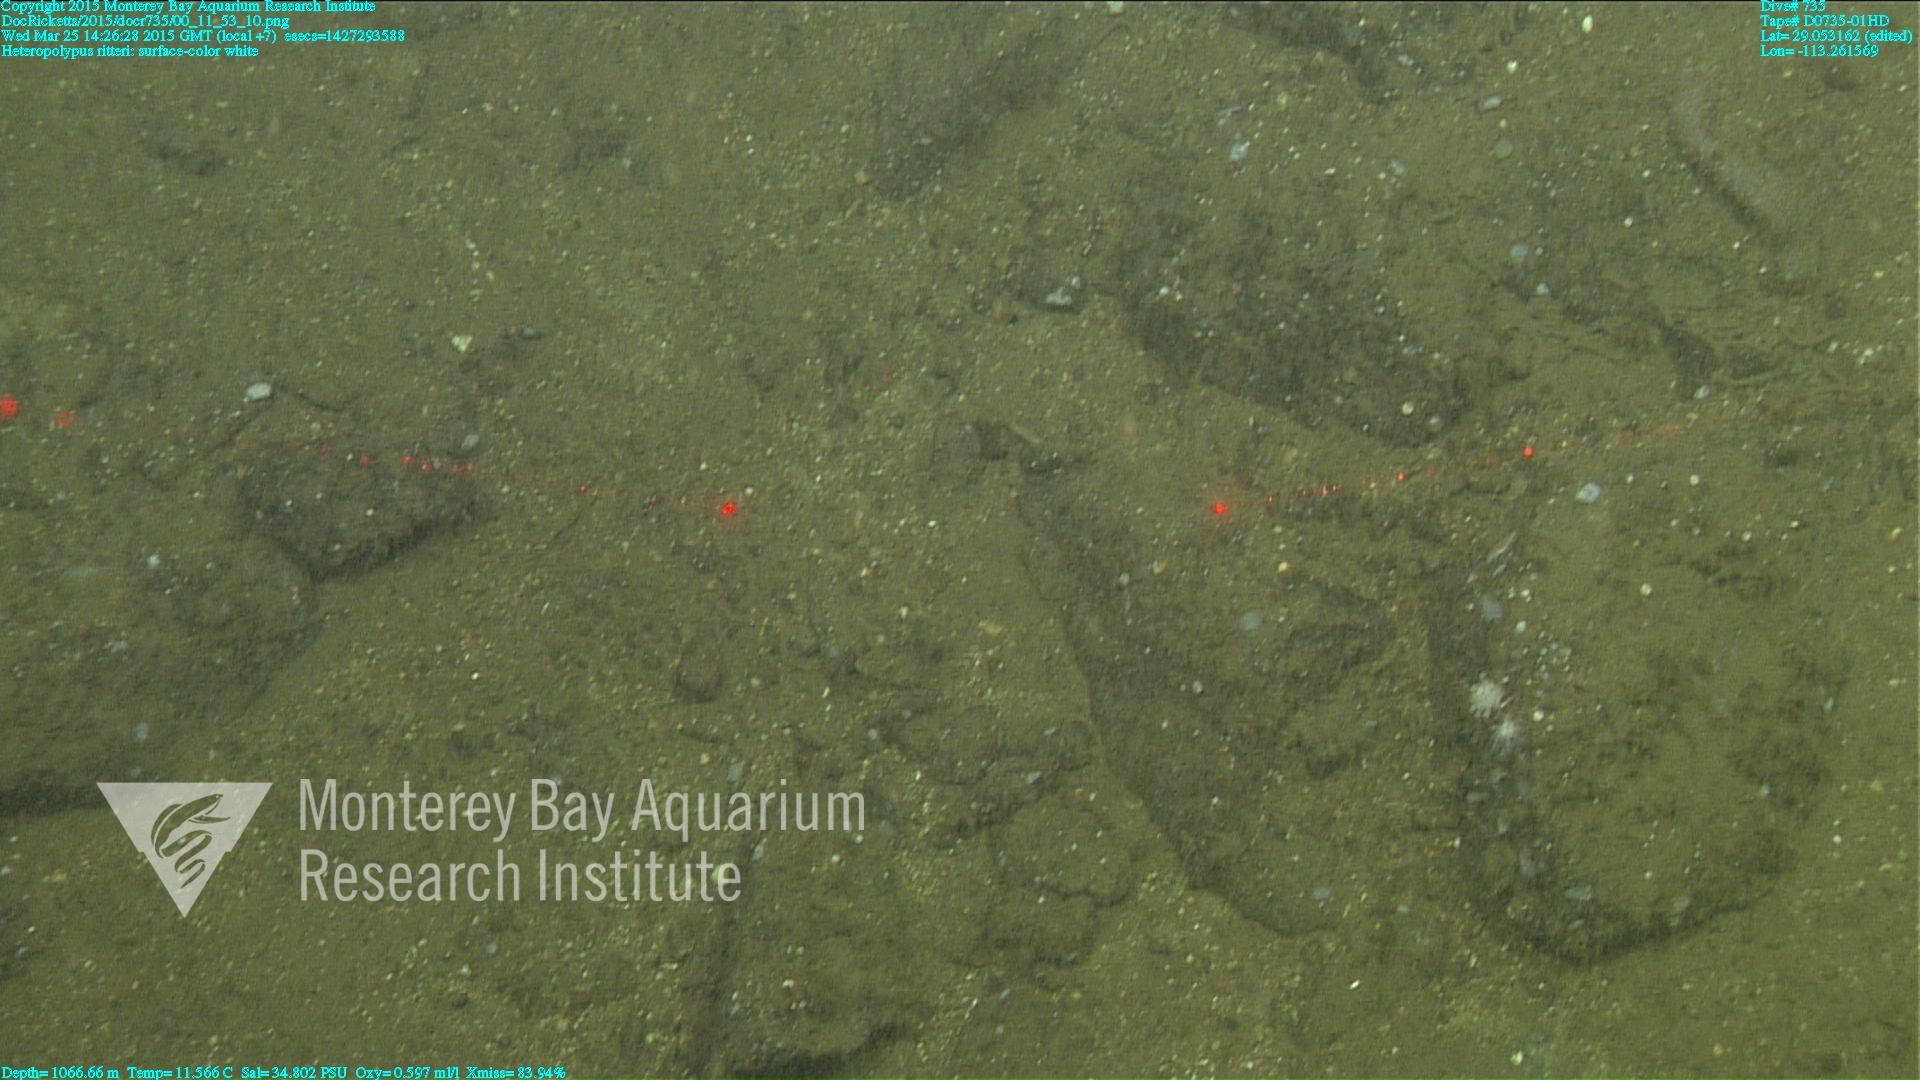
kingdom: Animalia
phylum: Cnidaria
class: Anthozoa
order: Scleralcyonacea
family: Coralliidae
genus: Heteropolypus
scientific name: Heteropolypus ritteri
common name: Ritter's soft coral
